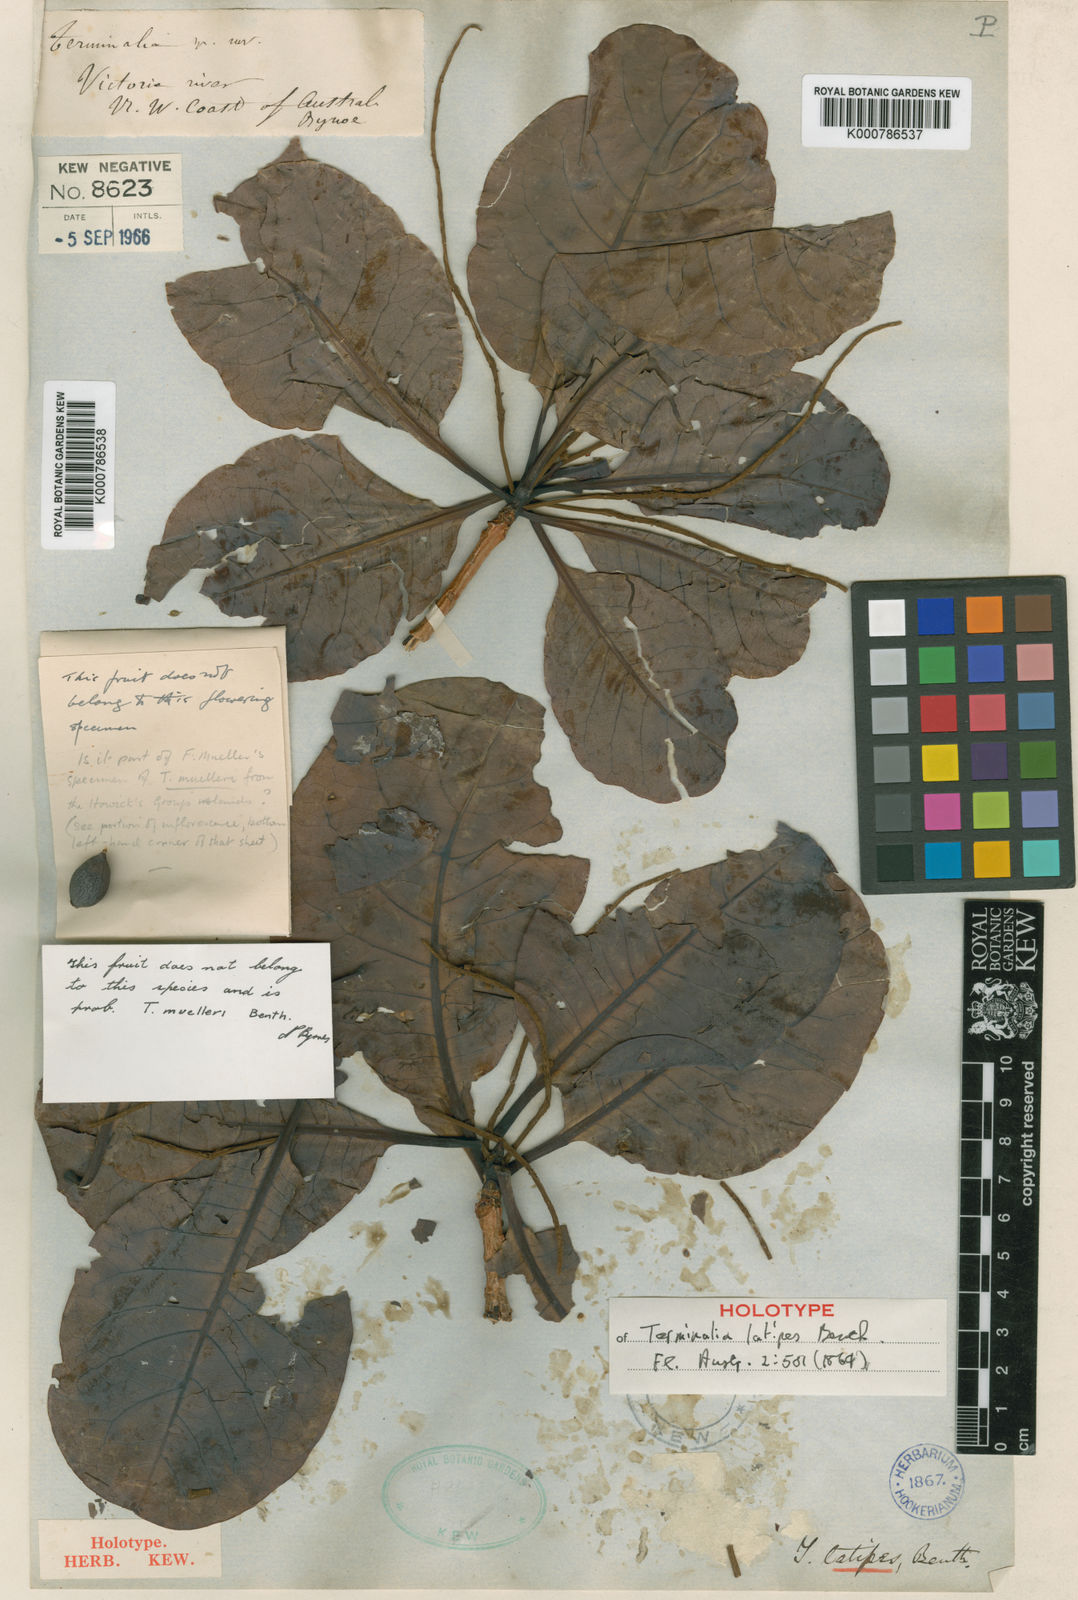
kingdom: Plantae
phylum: Tracheophyta
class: Magnoliopsida
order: Myrtales
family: Combretaceae
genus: Terminalia
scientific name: Terminalia latipes
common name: Billygoat-plum
